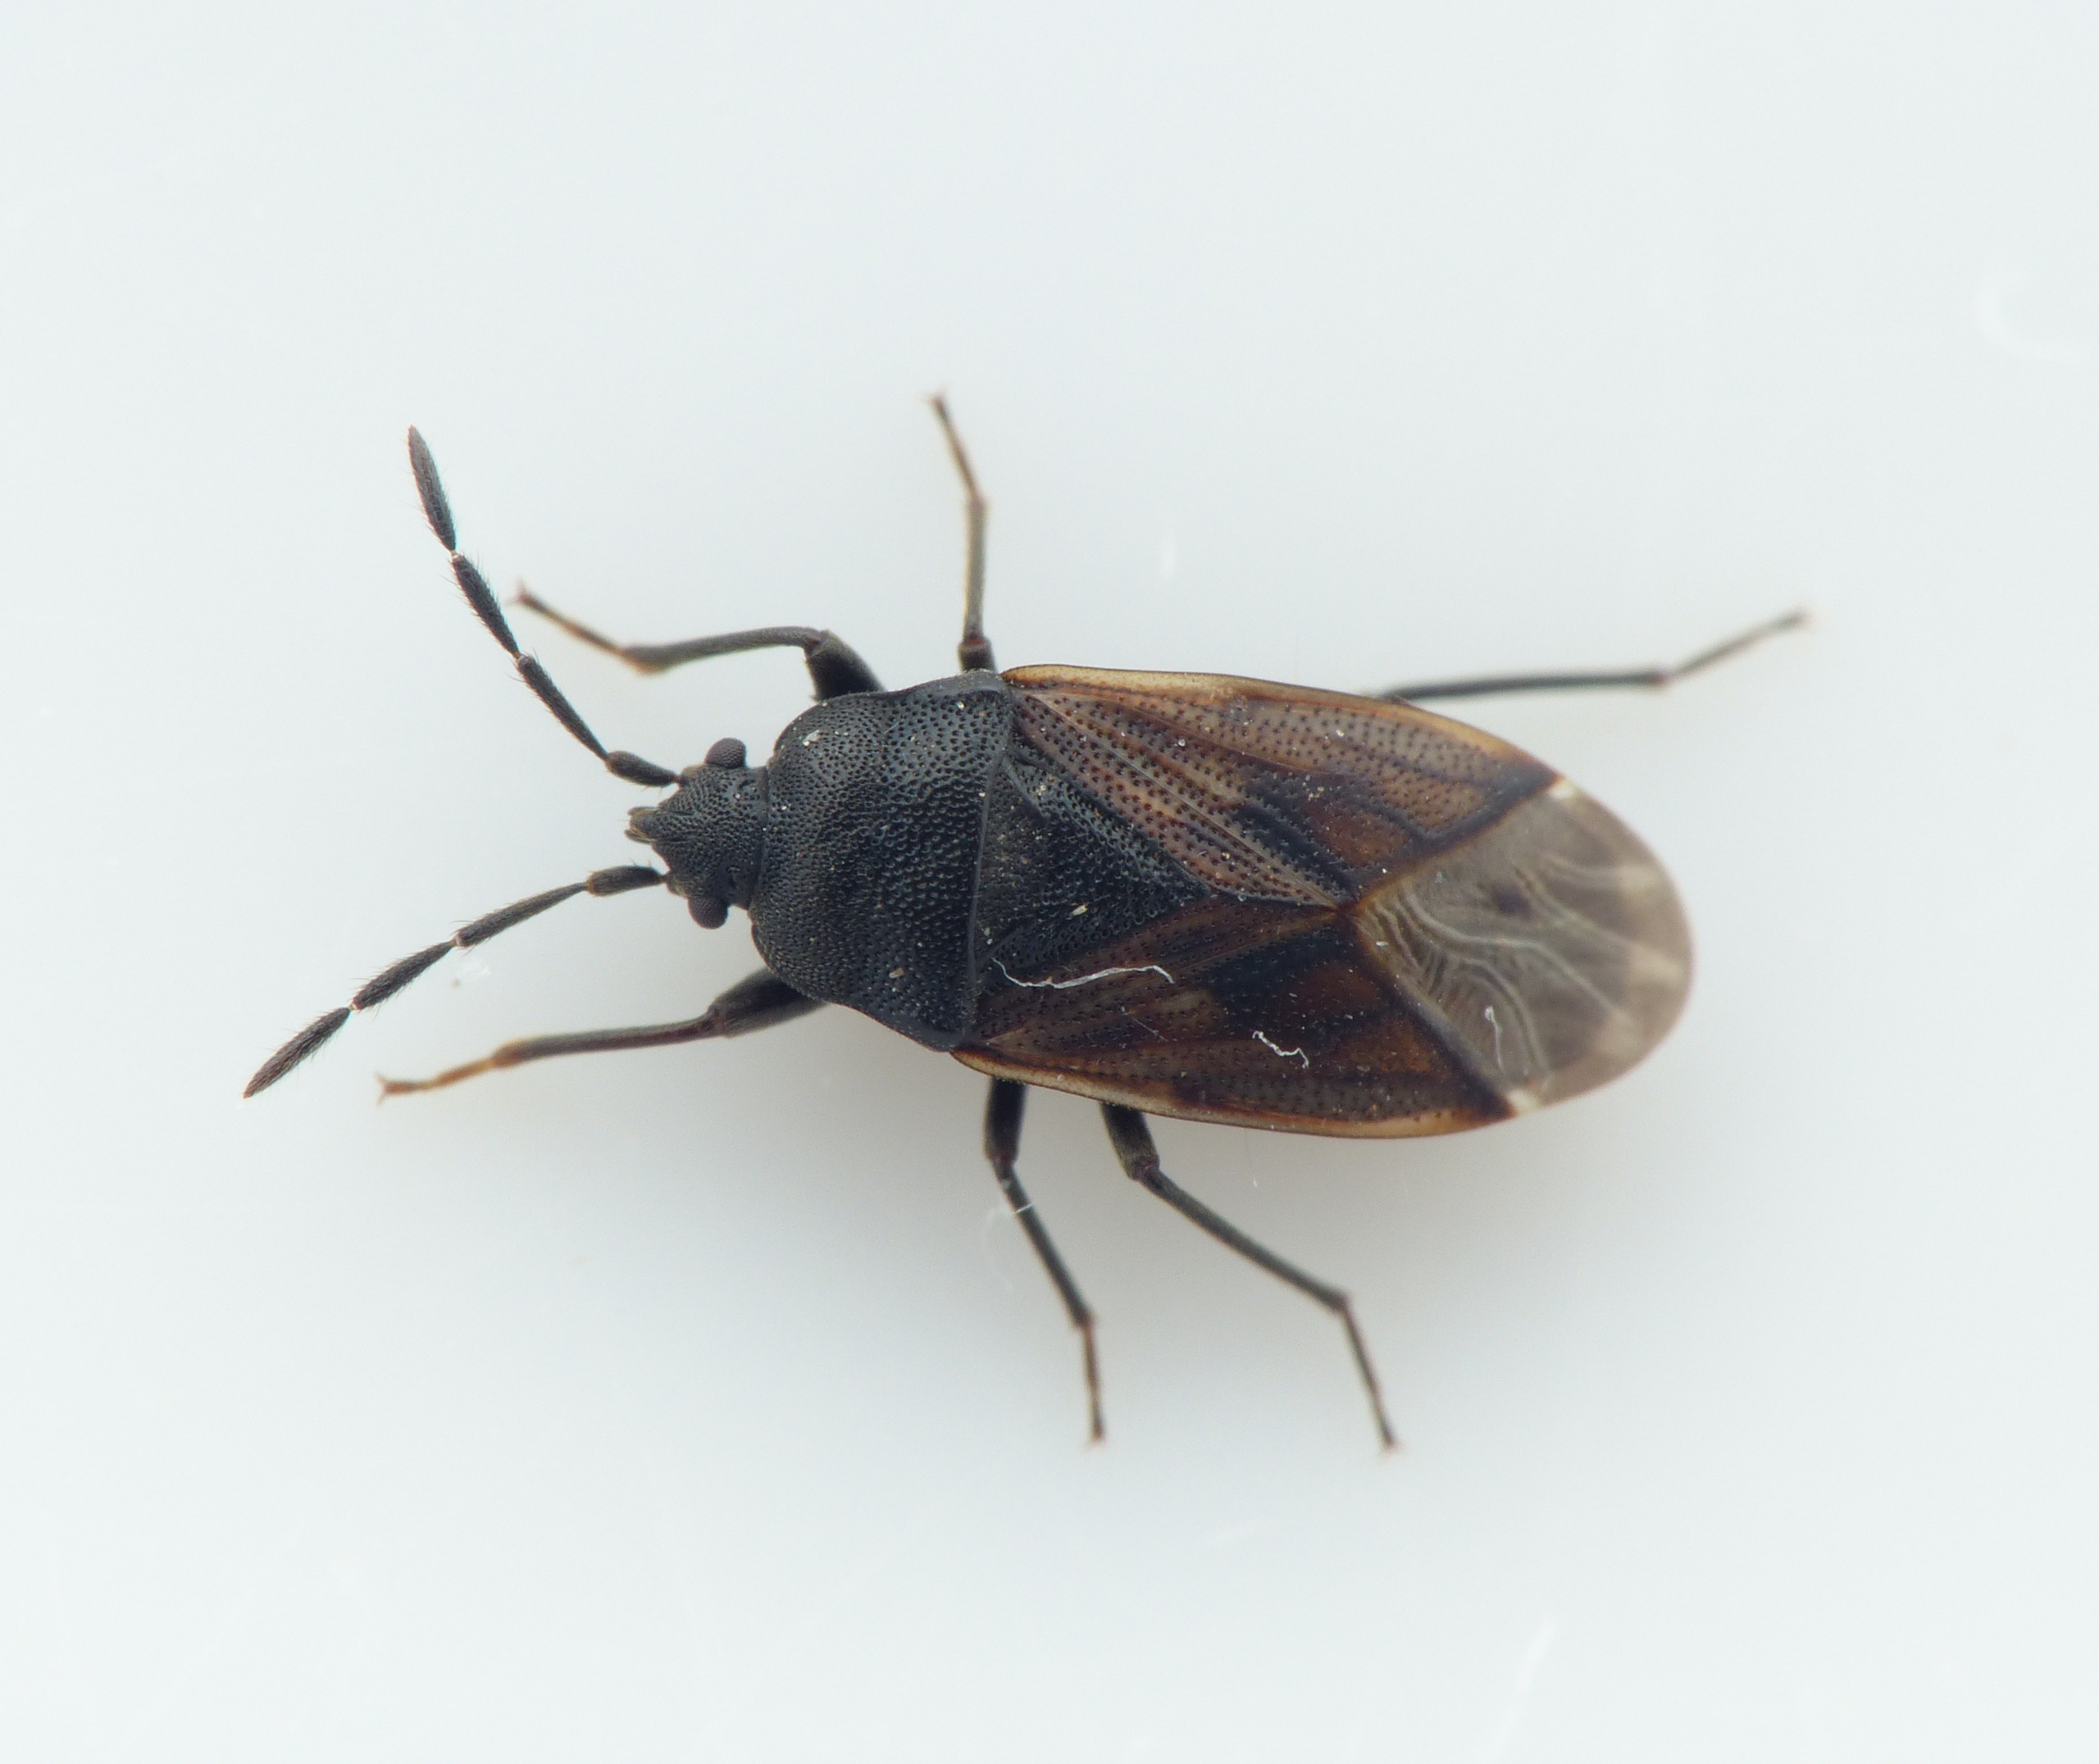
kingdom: Animalia
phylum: Arthropoda
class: Insecta
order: Hemiptera
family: Rhyparochromidae
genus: Drymus
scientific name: Drymus sylvaticus
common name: Skovfrøtæge
